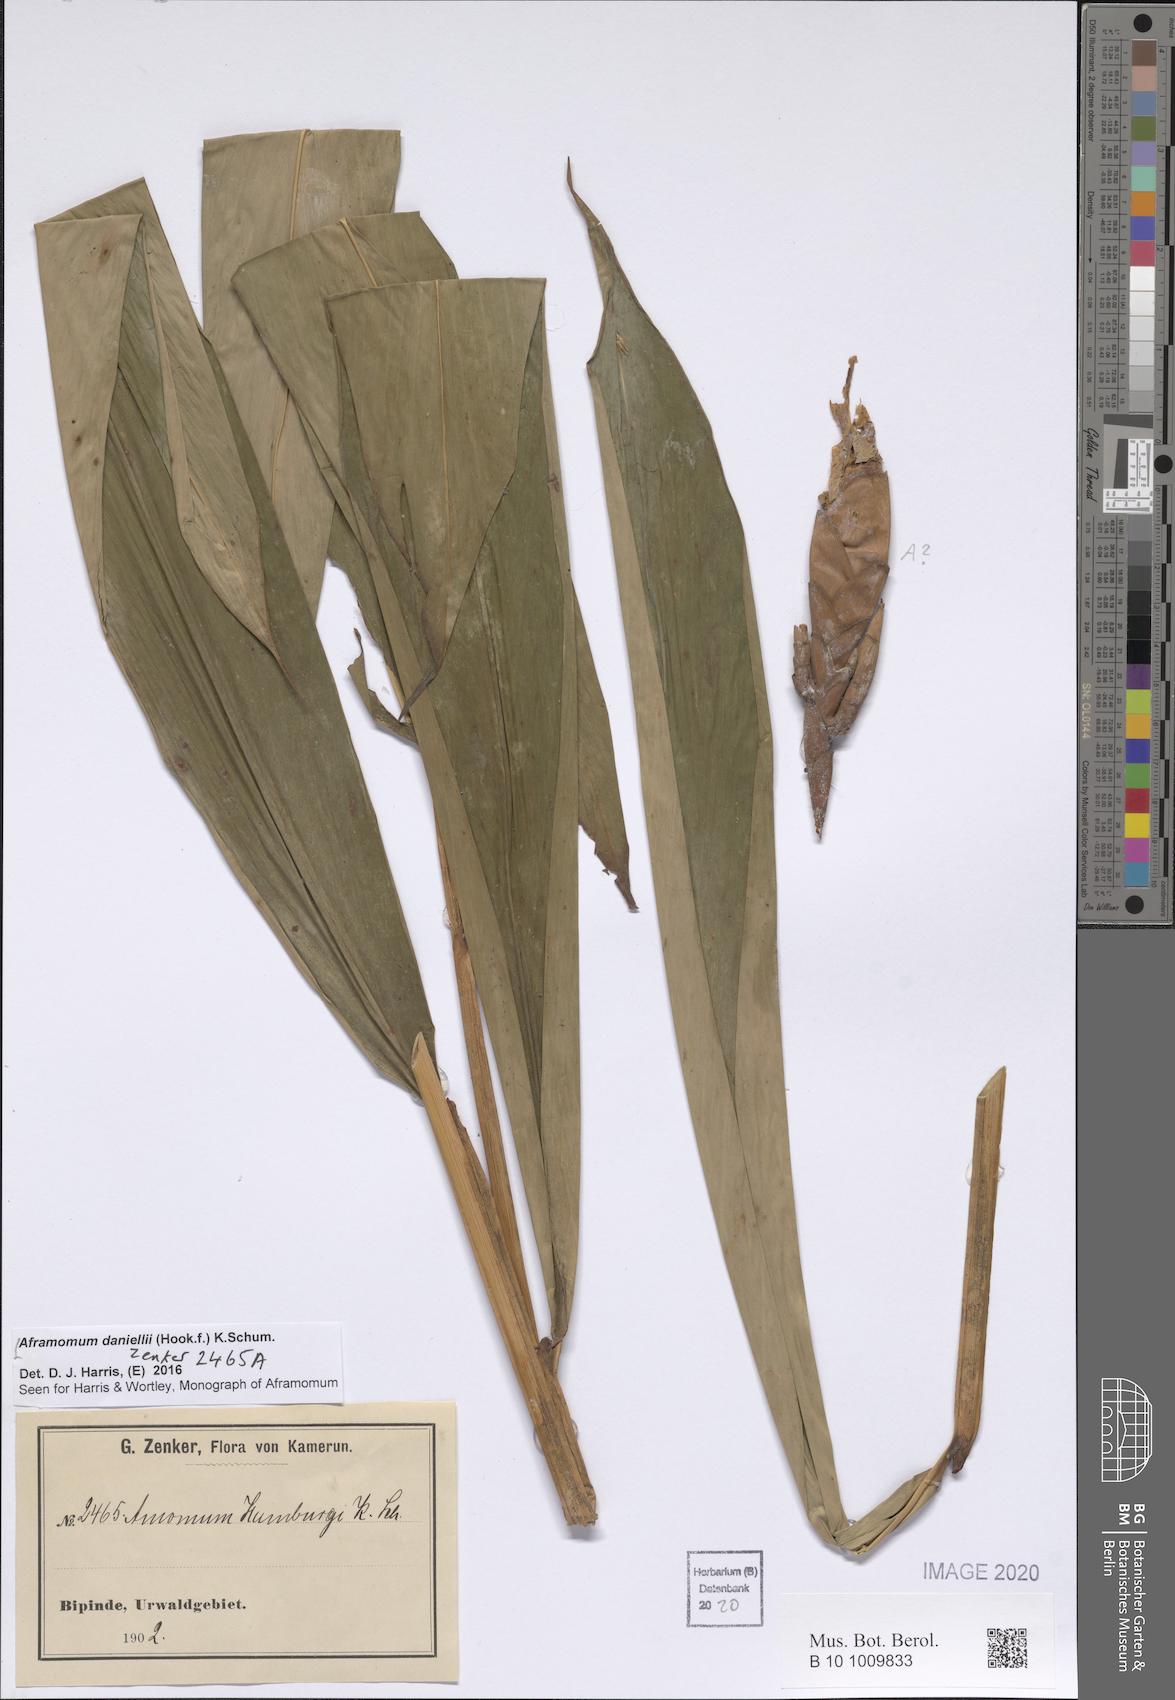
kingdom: Plantae
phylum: Tracheophyta
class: Liliopsida
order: Zingiberales
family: Zingiberaceae
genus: Aframomum
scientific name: Aframomum daniellii
